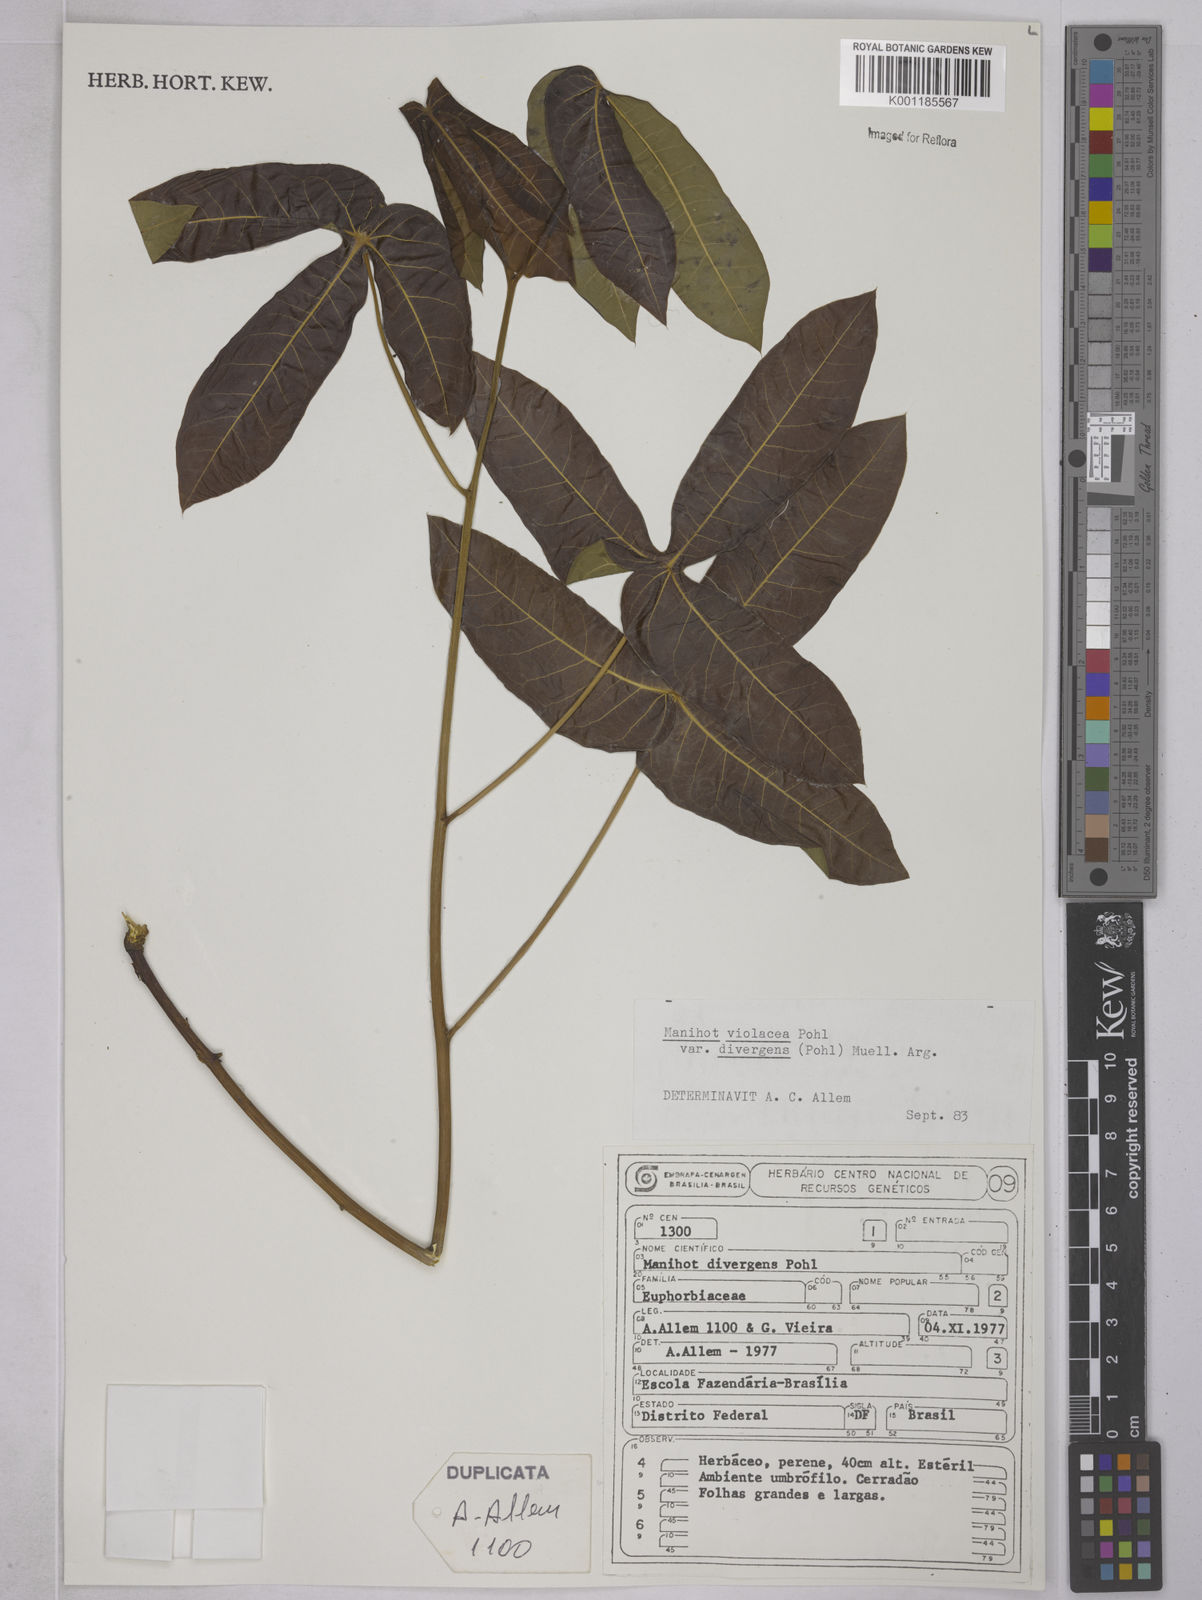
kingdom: Plantae
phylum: Tracheophyta
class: Magnoliopsida
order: Malpighiales
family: Euphorbiaceae
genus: Manihot
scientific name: Manihot divergens
